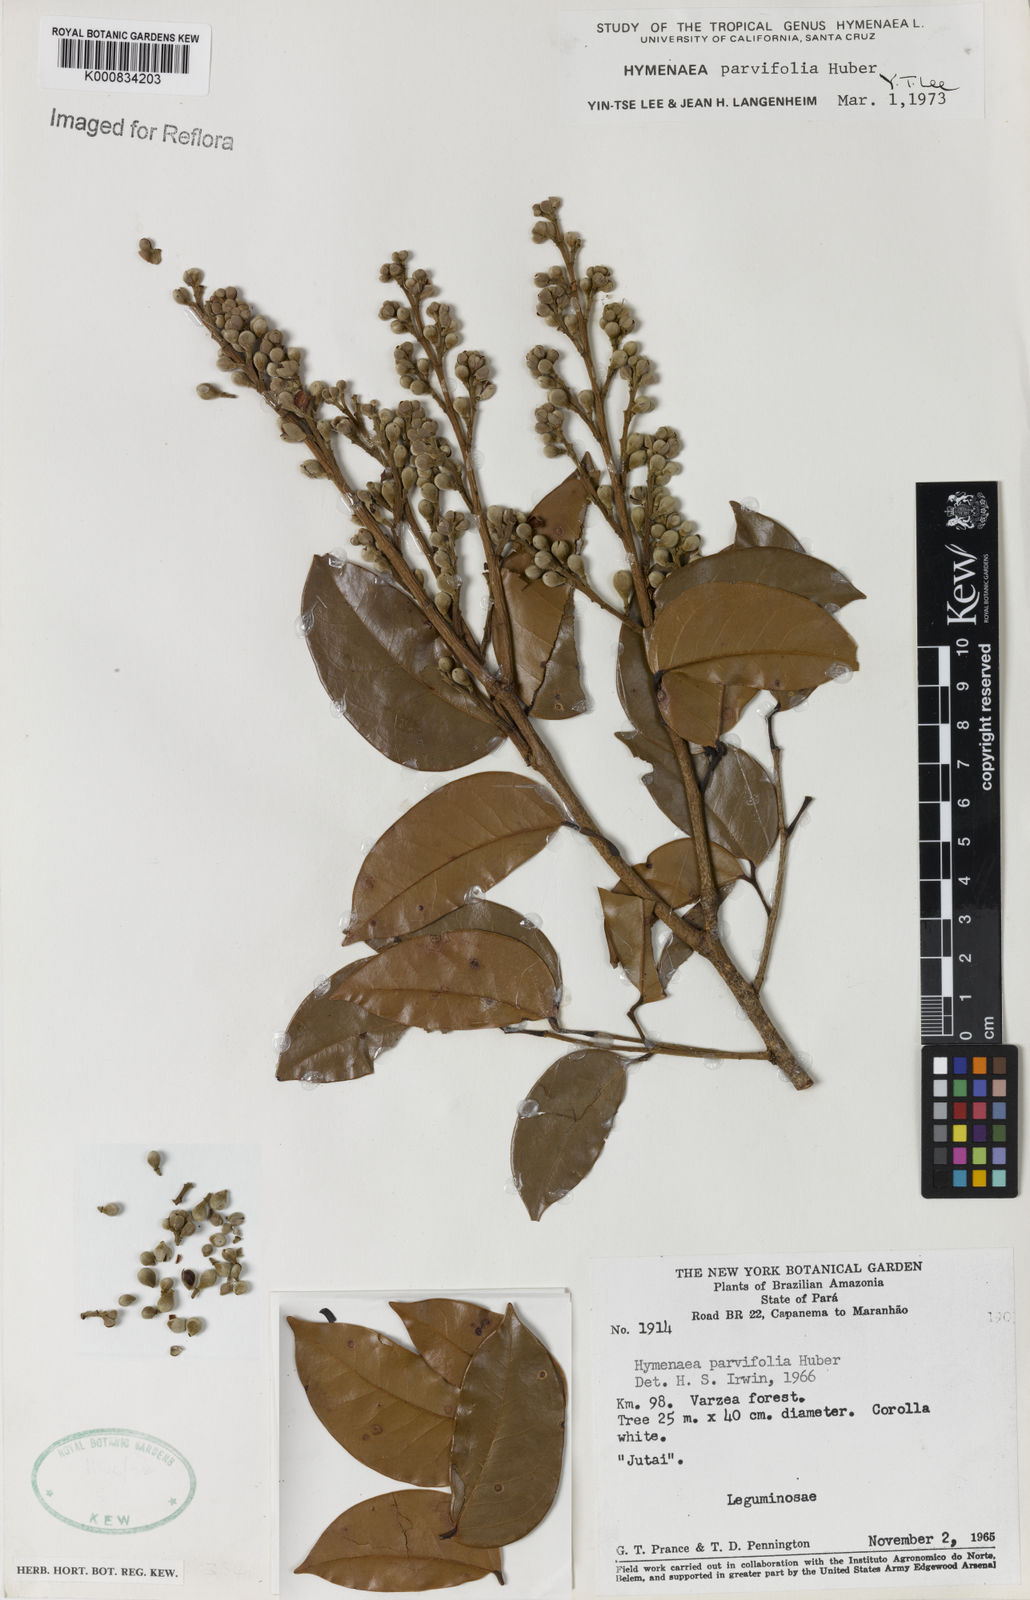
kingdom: Plantae
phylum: Tracheophyta
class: Magnoliopsida
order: Fabales
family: Fabaceae
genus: Hymenaea
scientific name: Hymenaea parvifolia
